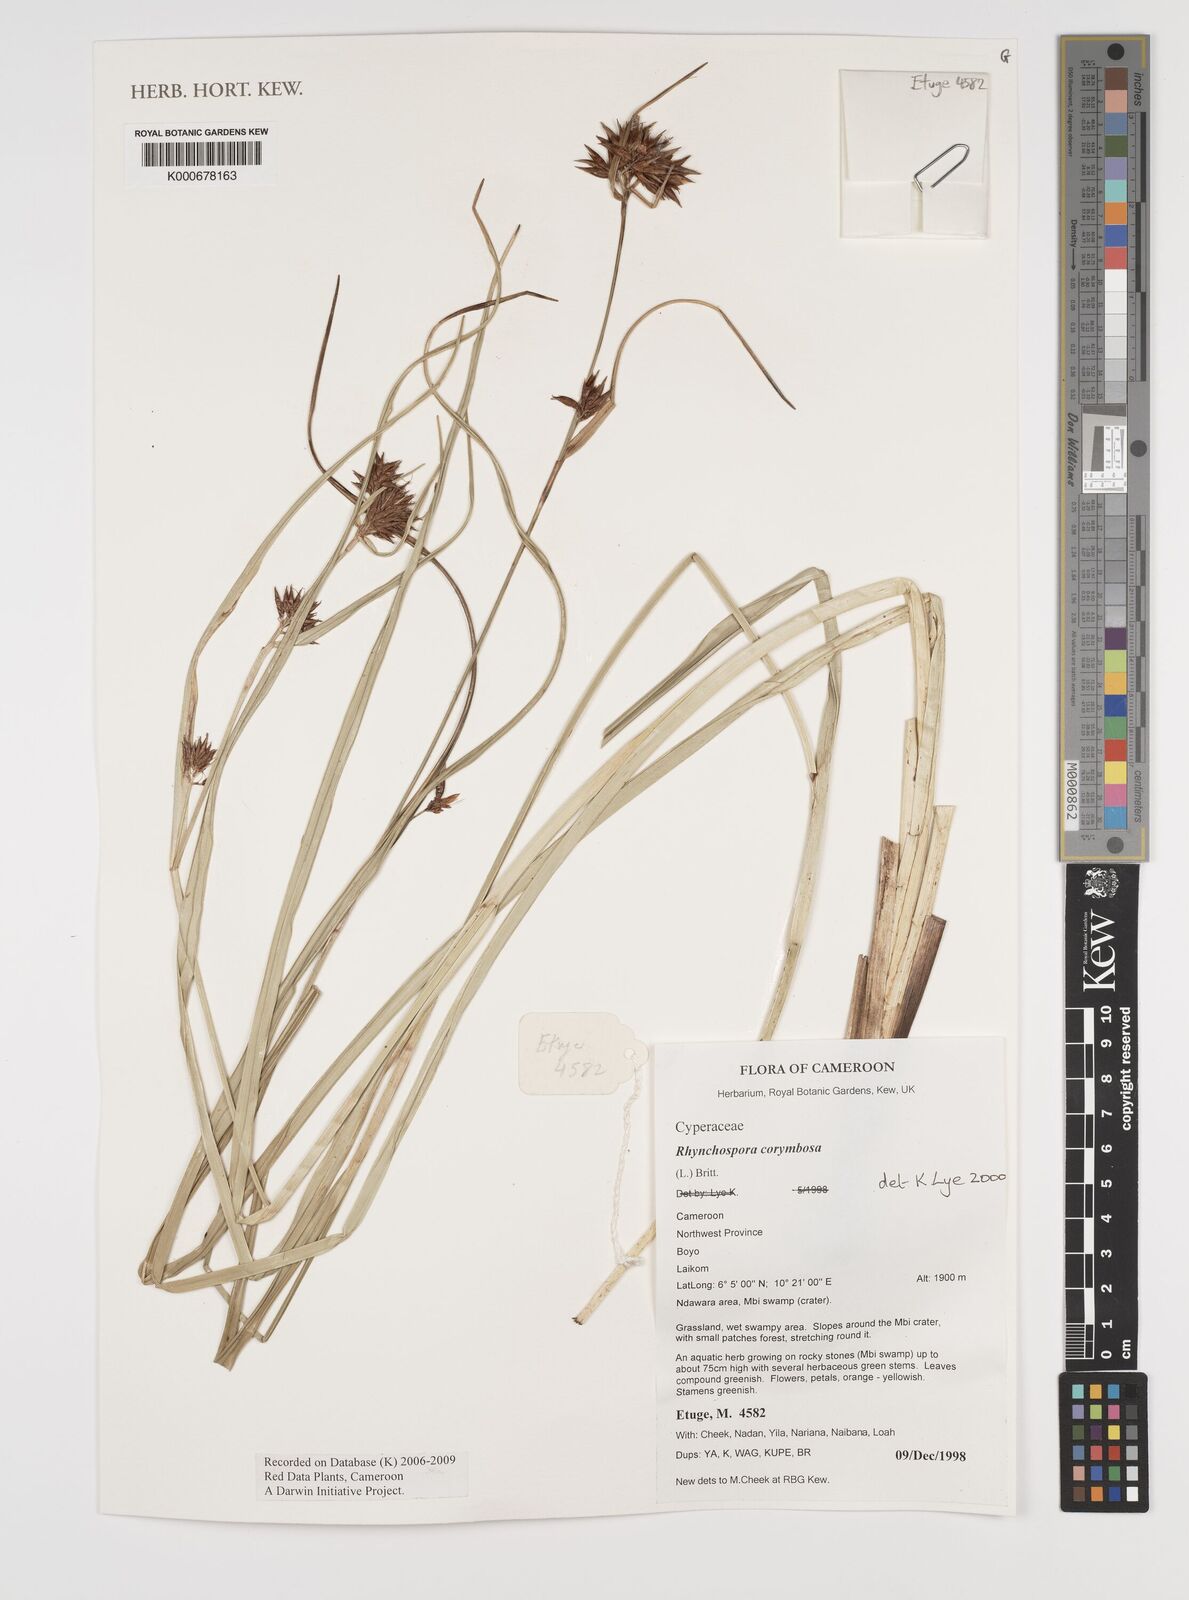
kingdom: Plantae
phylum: Tracheophyta
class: Liliopsida
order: Poales
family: Cyperaceae
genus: Rhynchospora
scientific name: Rhynchospora corymbosa
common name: Golden beak sedge
